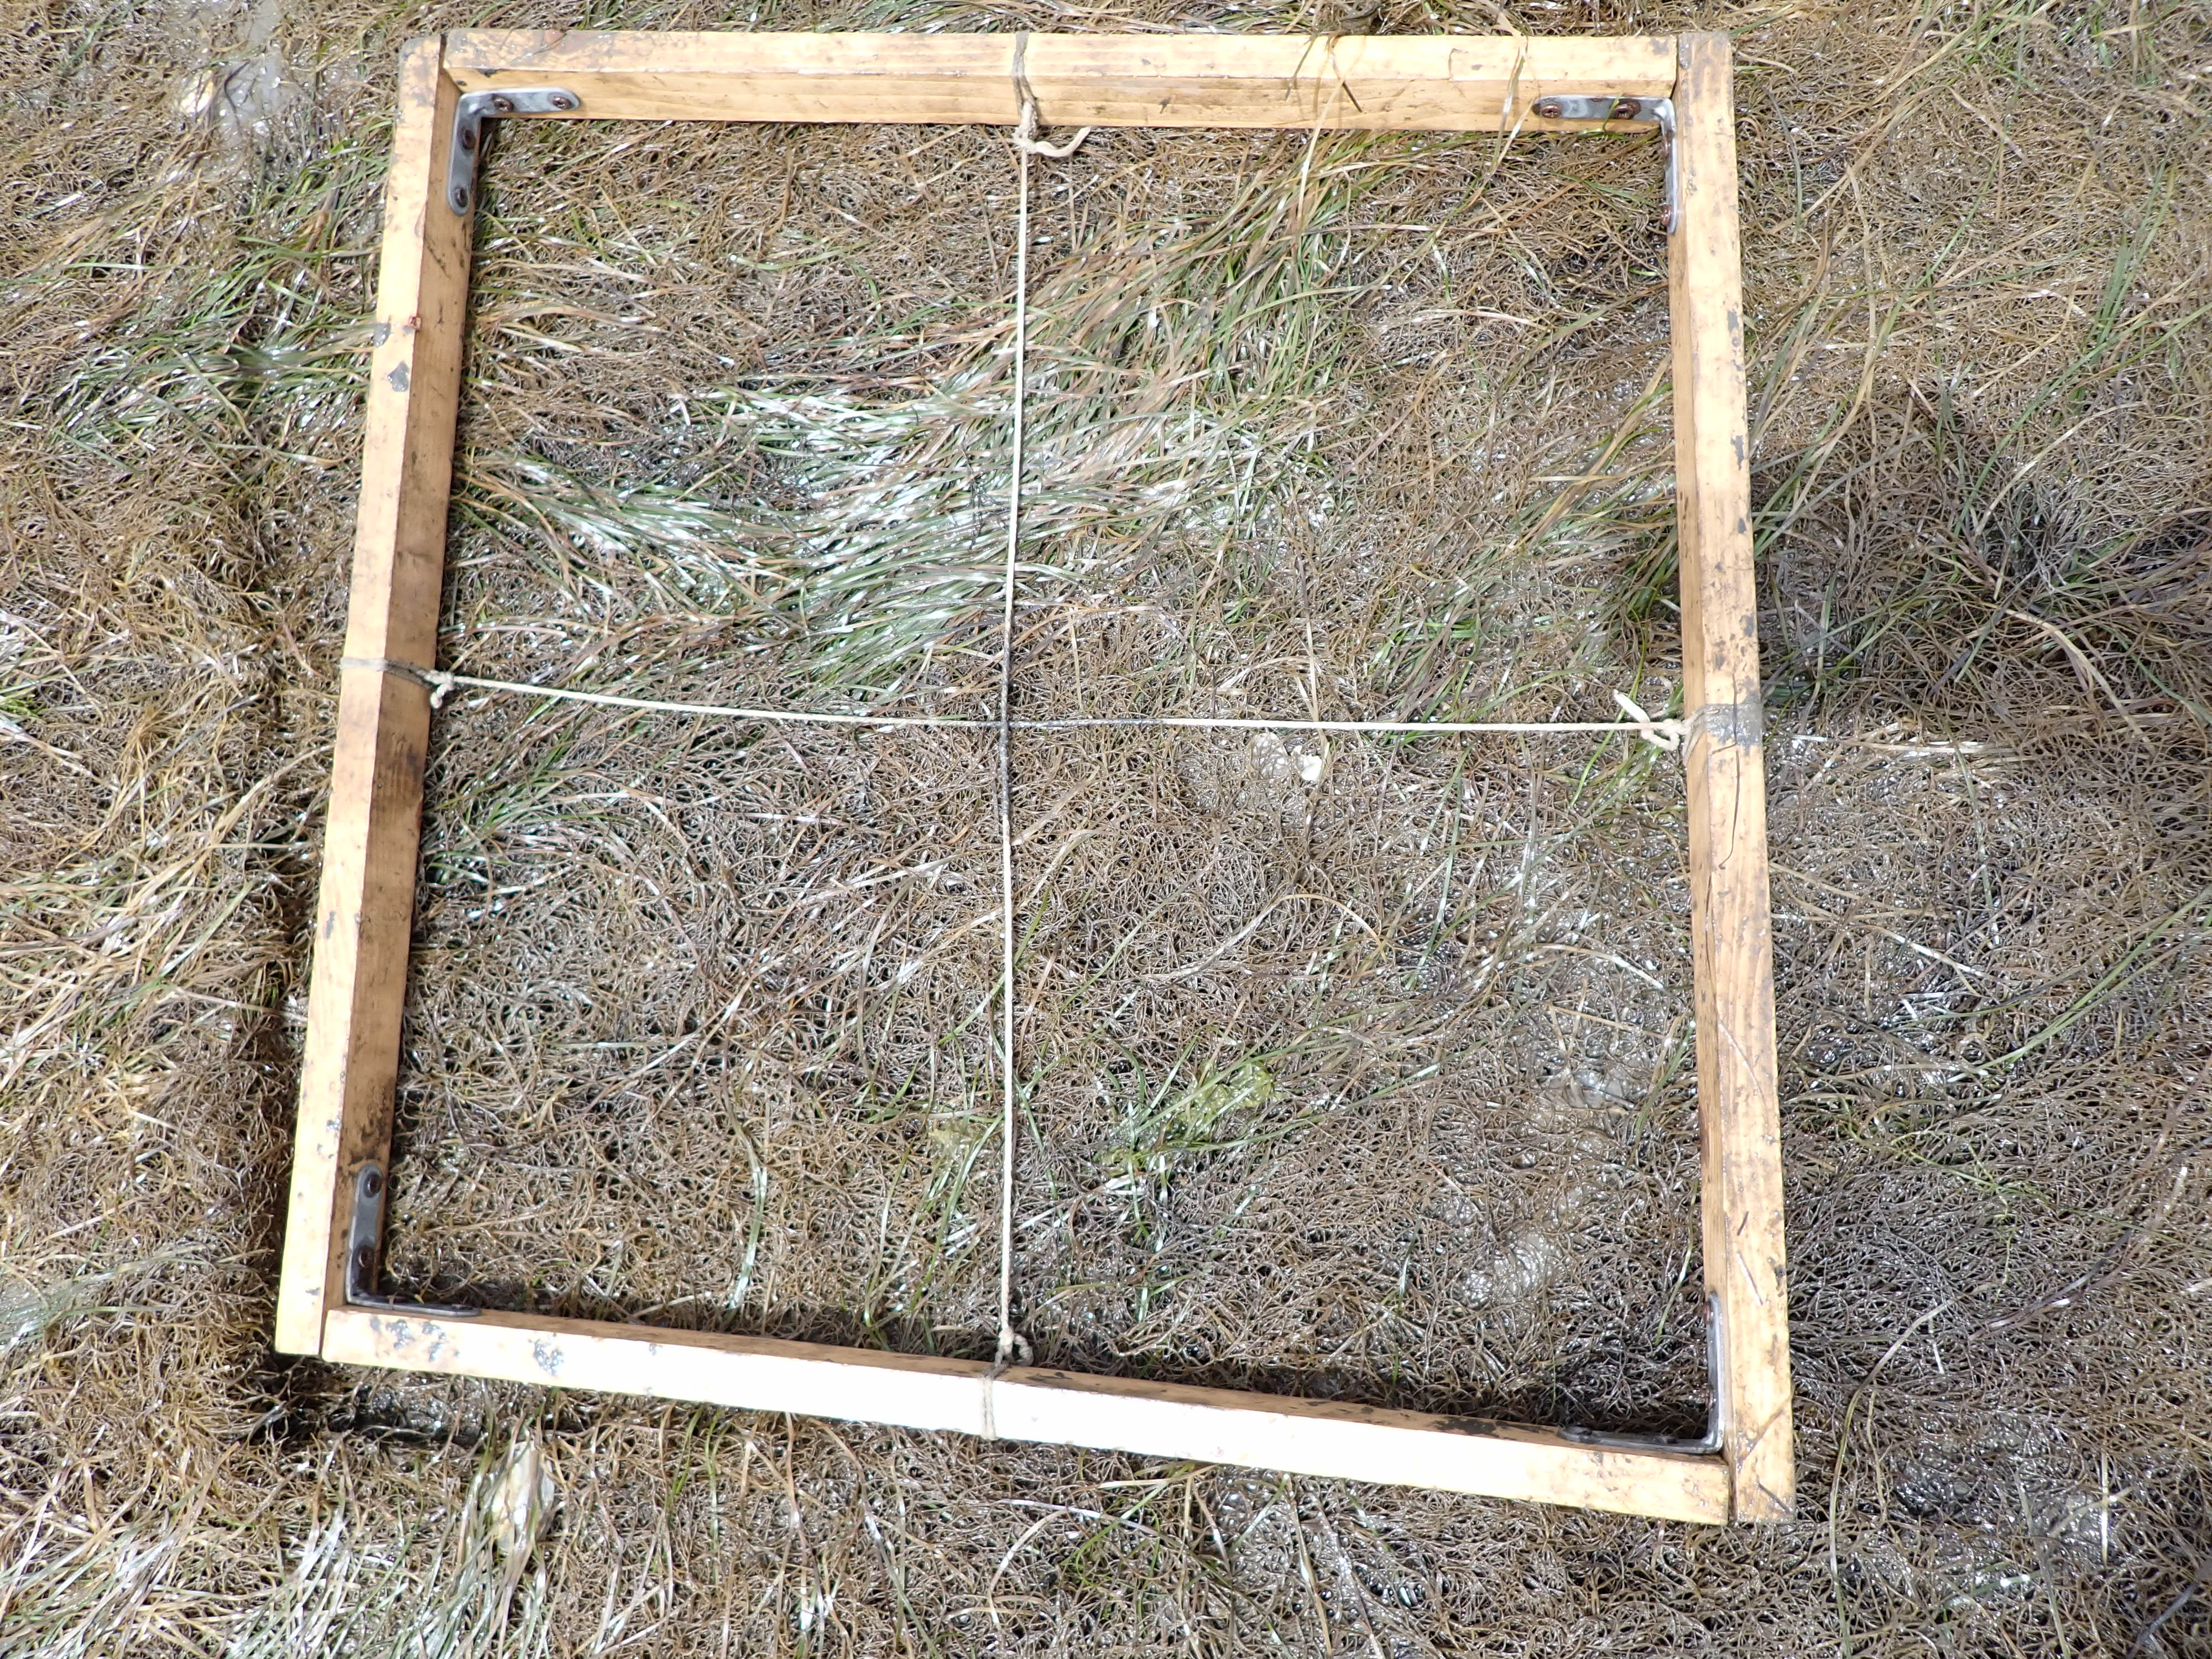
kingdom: Plantae
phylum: Tracheophyta
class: Liliopsida
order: Alismatales
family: Zosteraceae
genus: Zostera
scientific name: Zostera noltii
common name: Dwarf eelgrass
